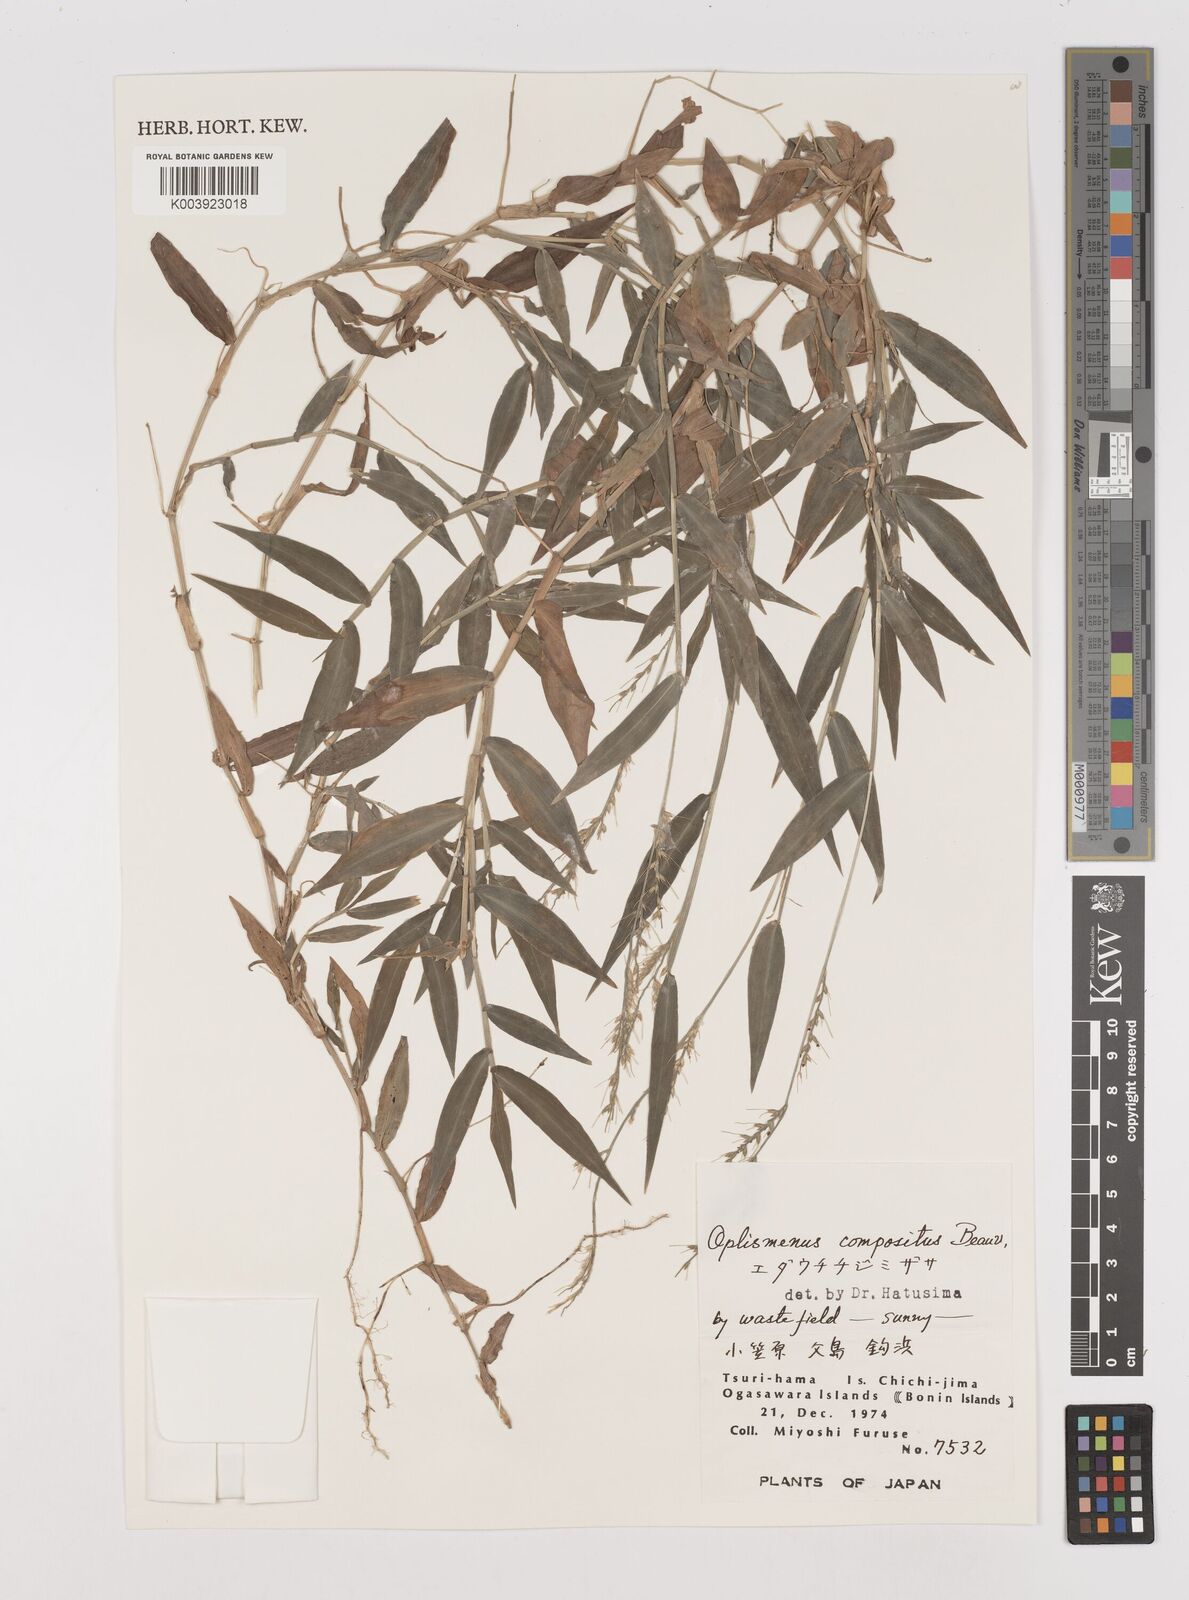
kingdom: Plantae
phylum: Tracheophyta
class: Liliopsida
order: Poales
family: Poaceae
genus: Oplismenus
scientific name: Oplismenus compositus
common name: Running mountain grass
